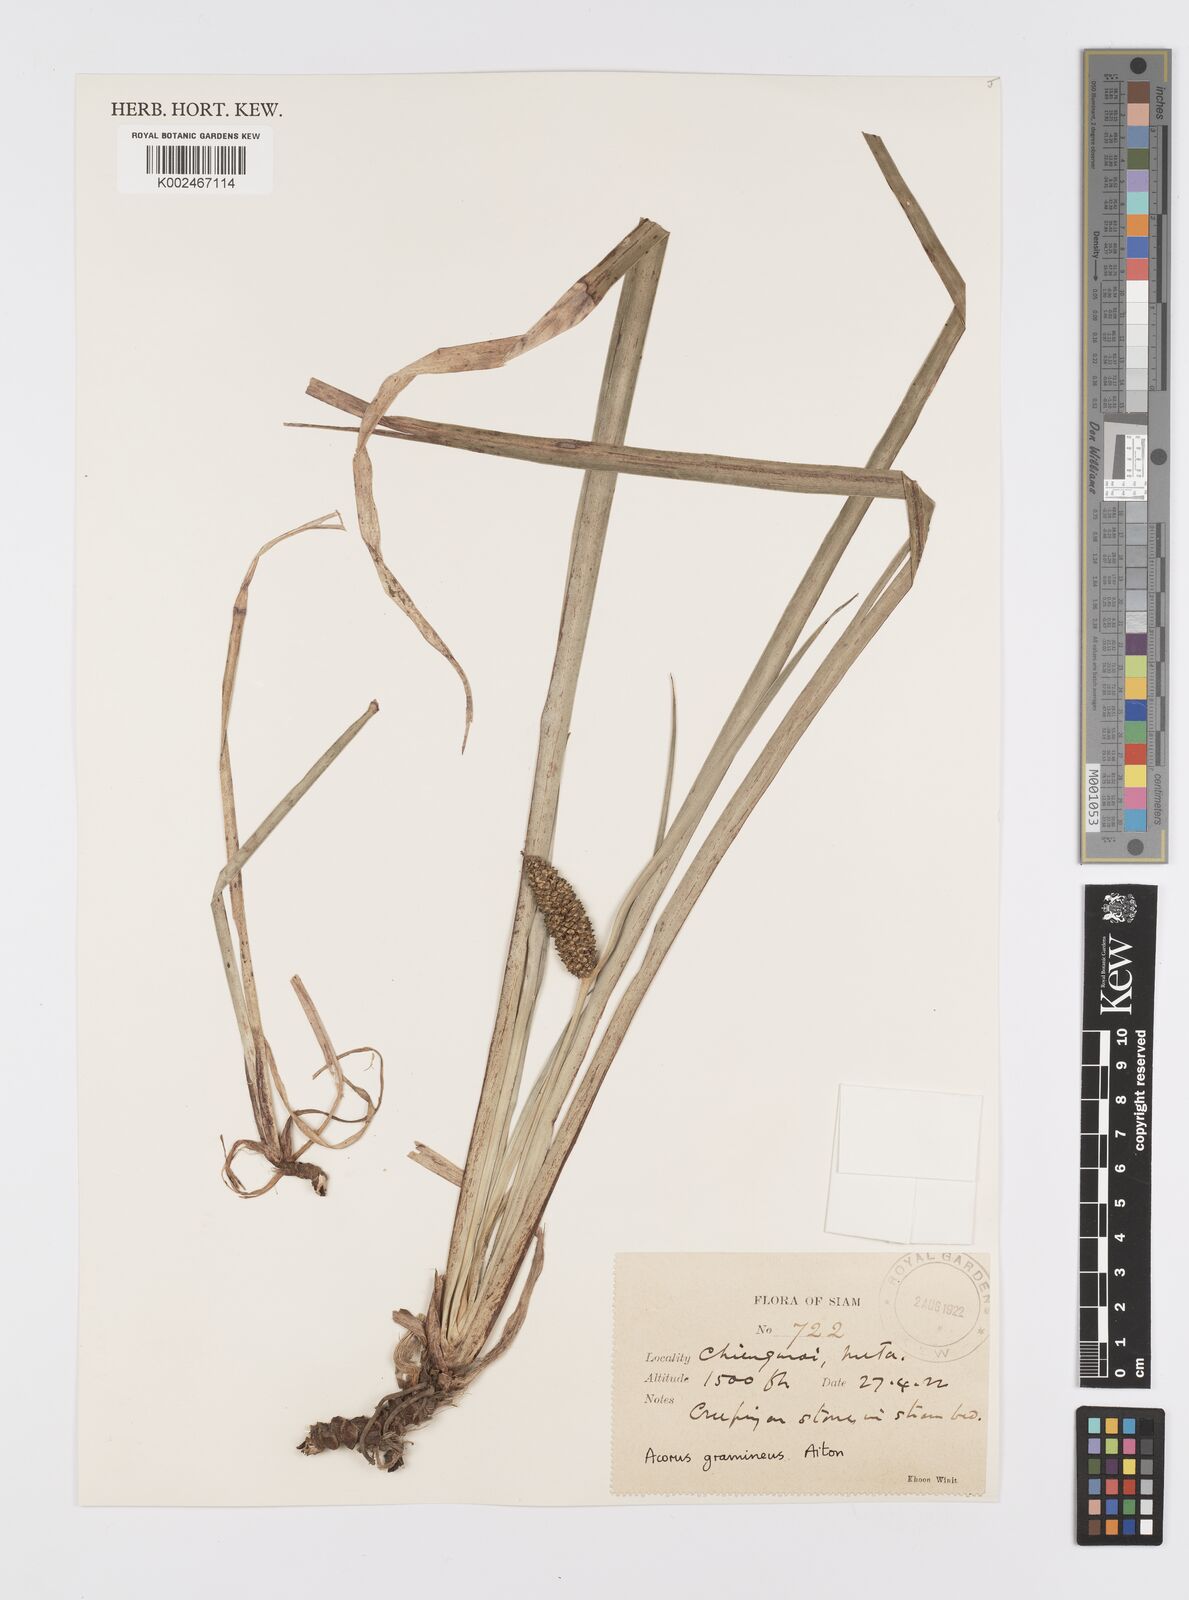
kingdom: Plantae
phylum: Tracheophyta
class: Liliopsida
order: Acorales
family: Acoraceae
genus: Acorus
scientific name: Acorus gramineus
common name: Slender sweet-flag
